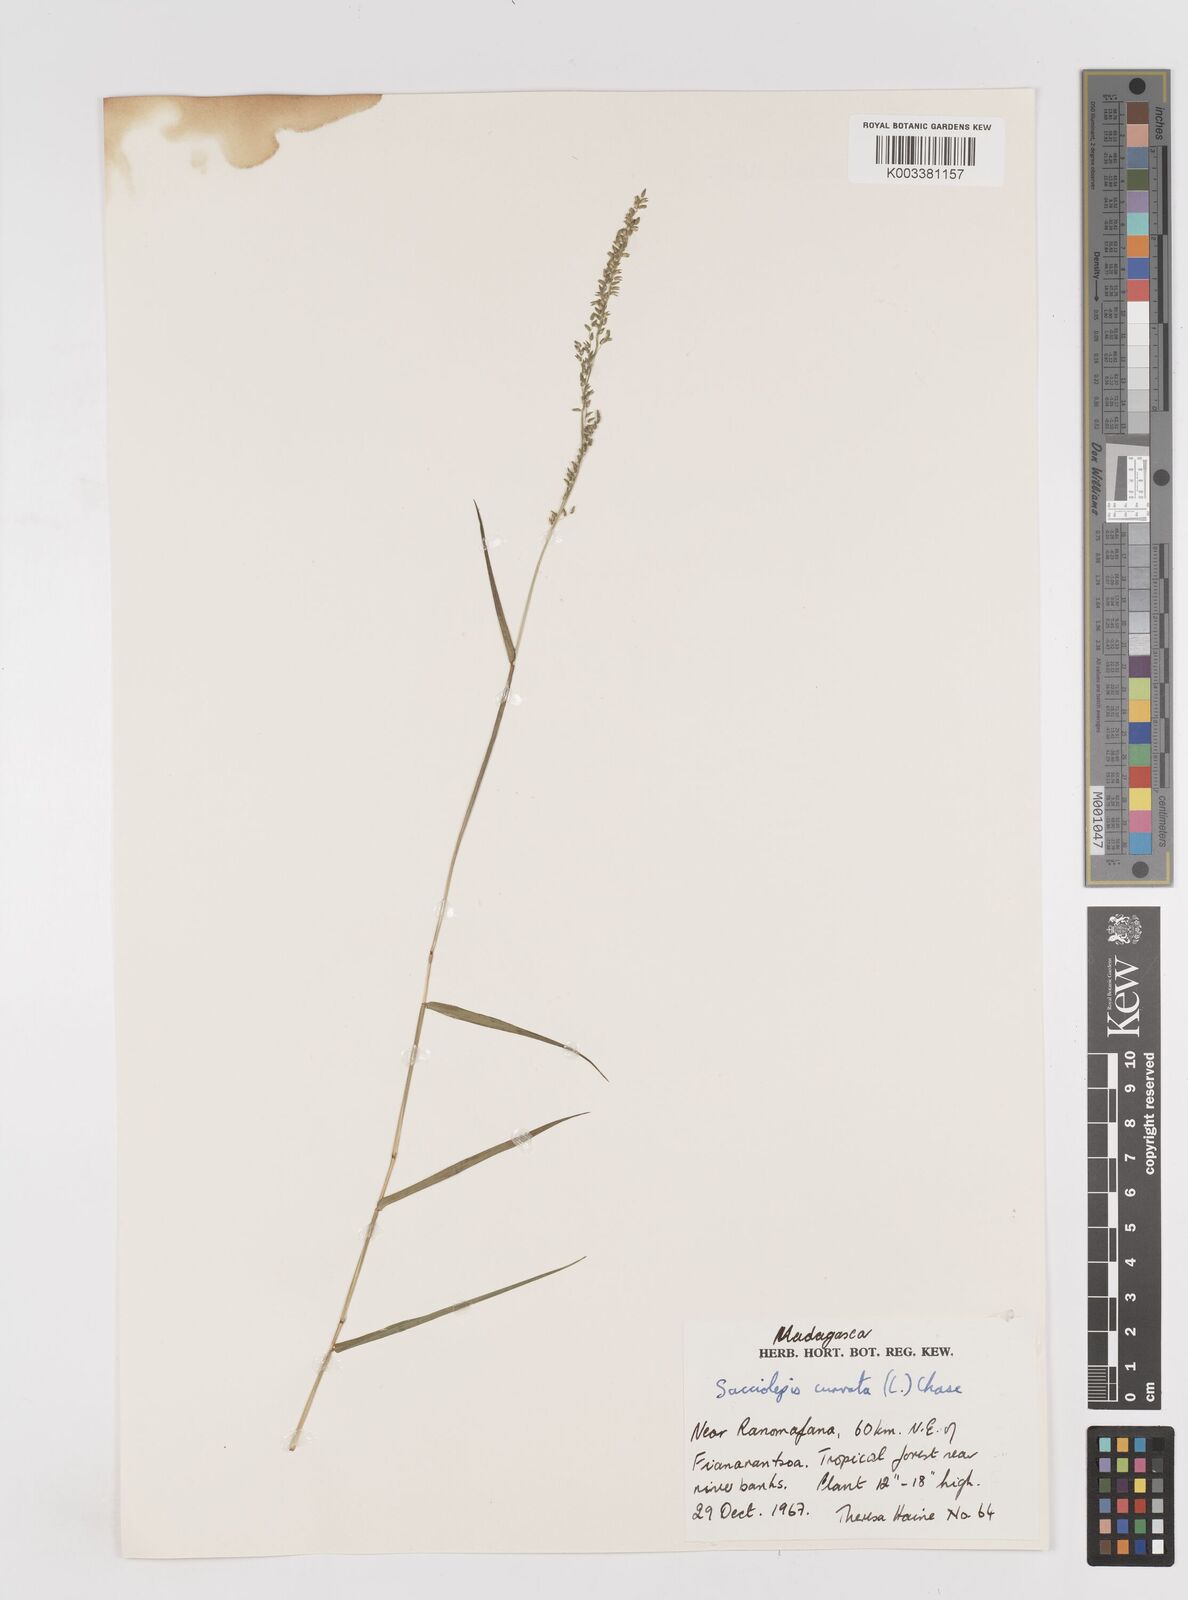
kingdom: Plantae
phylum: Tracheophyta
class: Liliopsida
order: Poales
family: Poaceae
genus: Sacciolepis
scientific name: Sacciolepis curvata
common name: Forest hood grass
